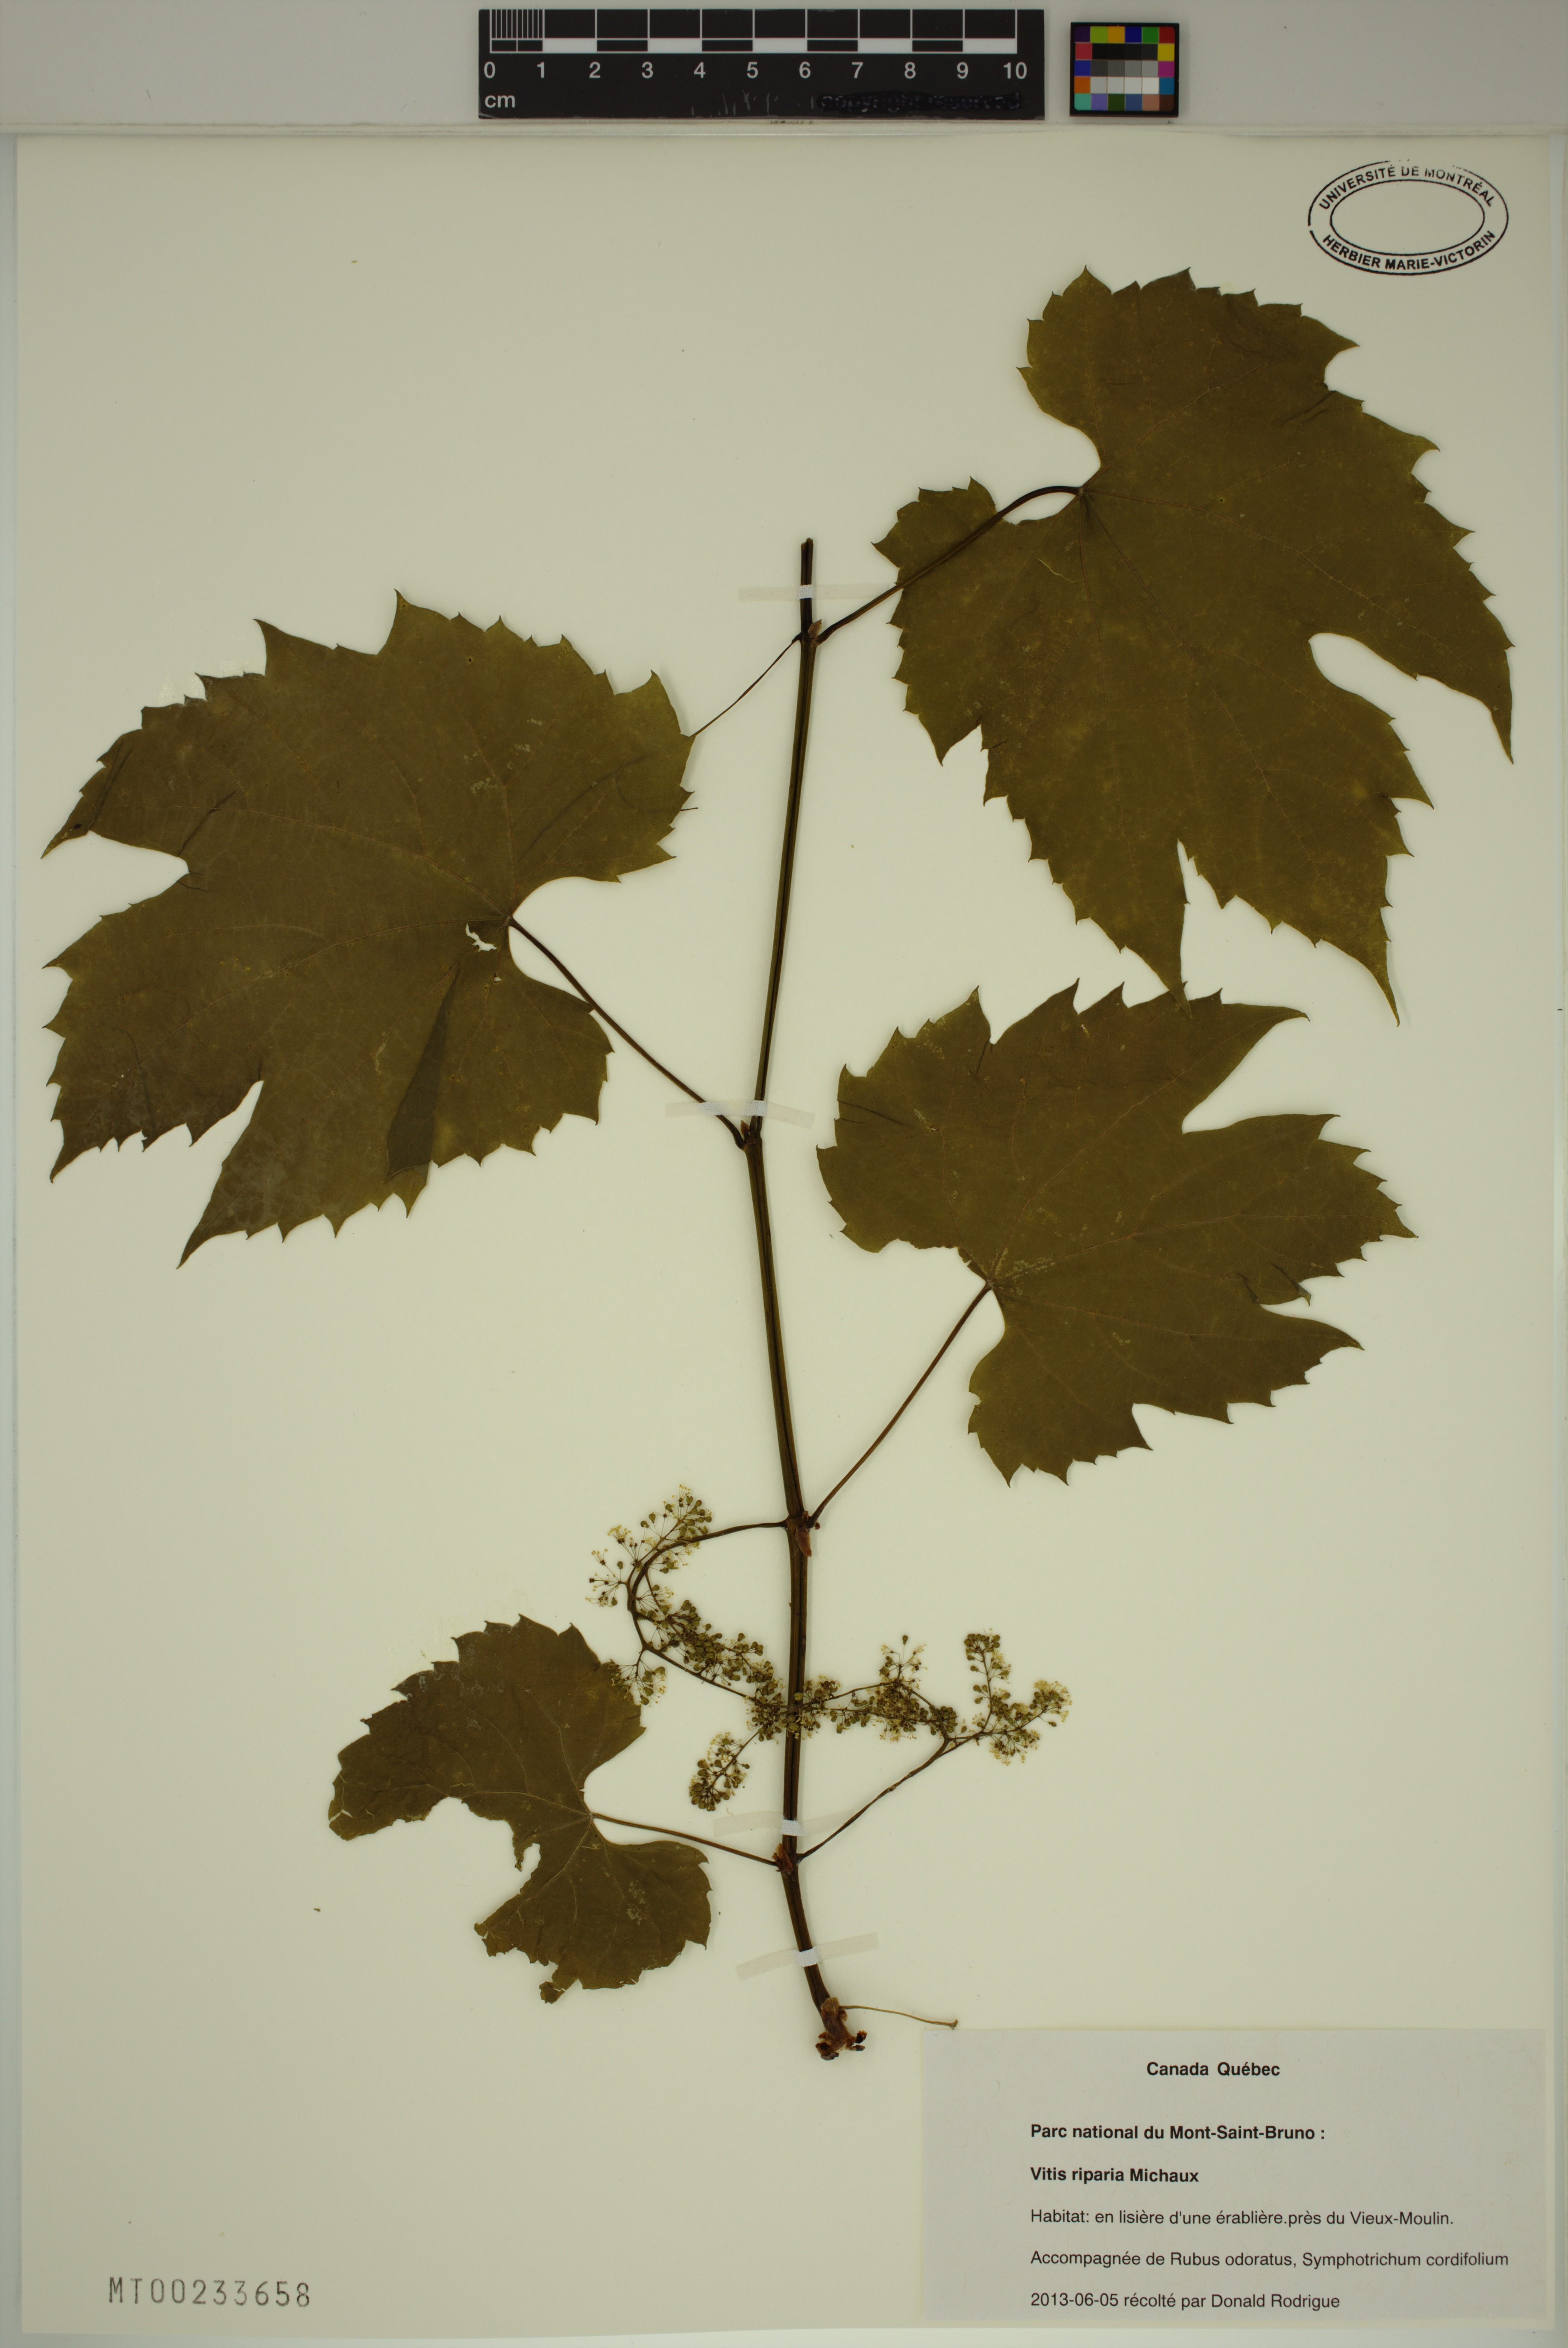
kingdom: Plantae
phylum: Tracheophyta
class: Magnoliopsida
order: Vitales
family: Vitaceae
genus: Vitis
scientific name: Vitis riparia
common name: Frost grape
